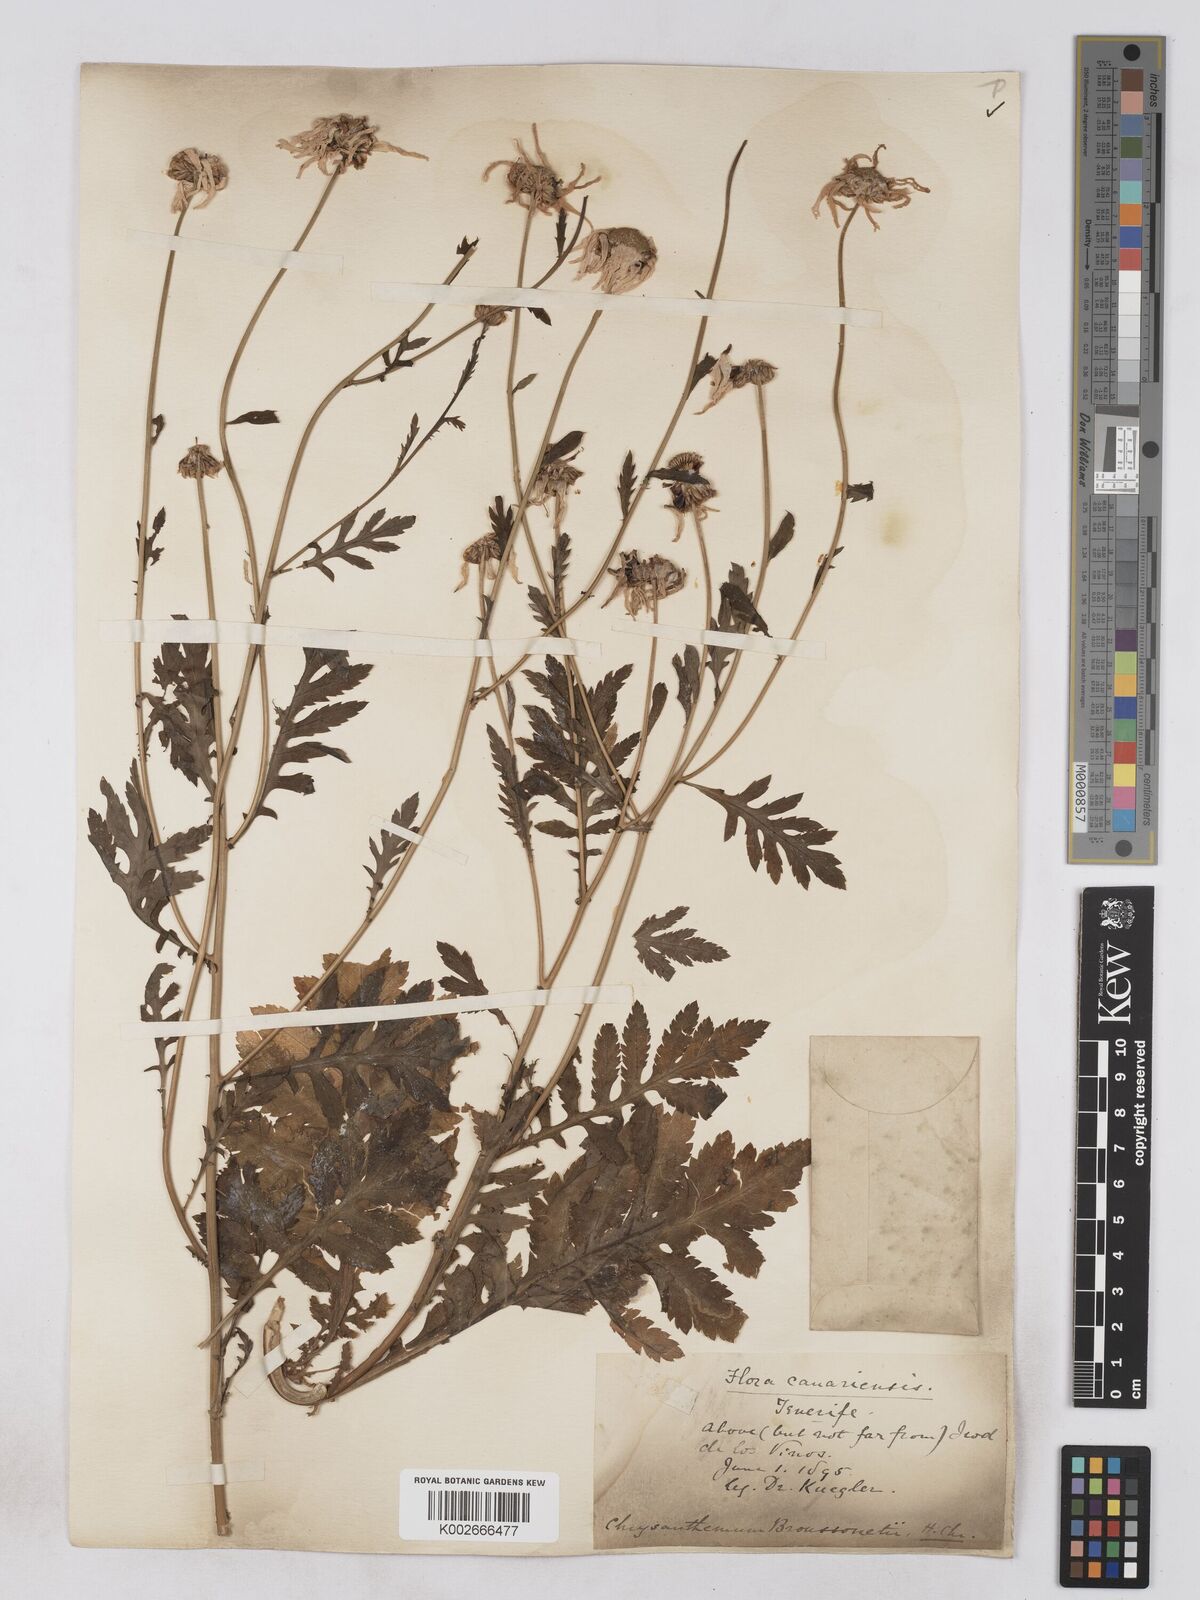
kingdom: Plantae
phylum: Tracheophyta
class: Magnoliopsida
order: Asterales
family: Asteraceae
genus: Argyranthemum
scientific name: Argyranthemum broussonetii
